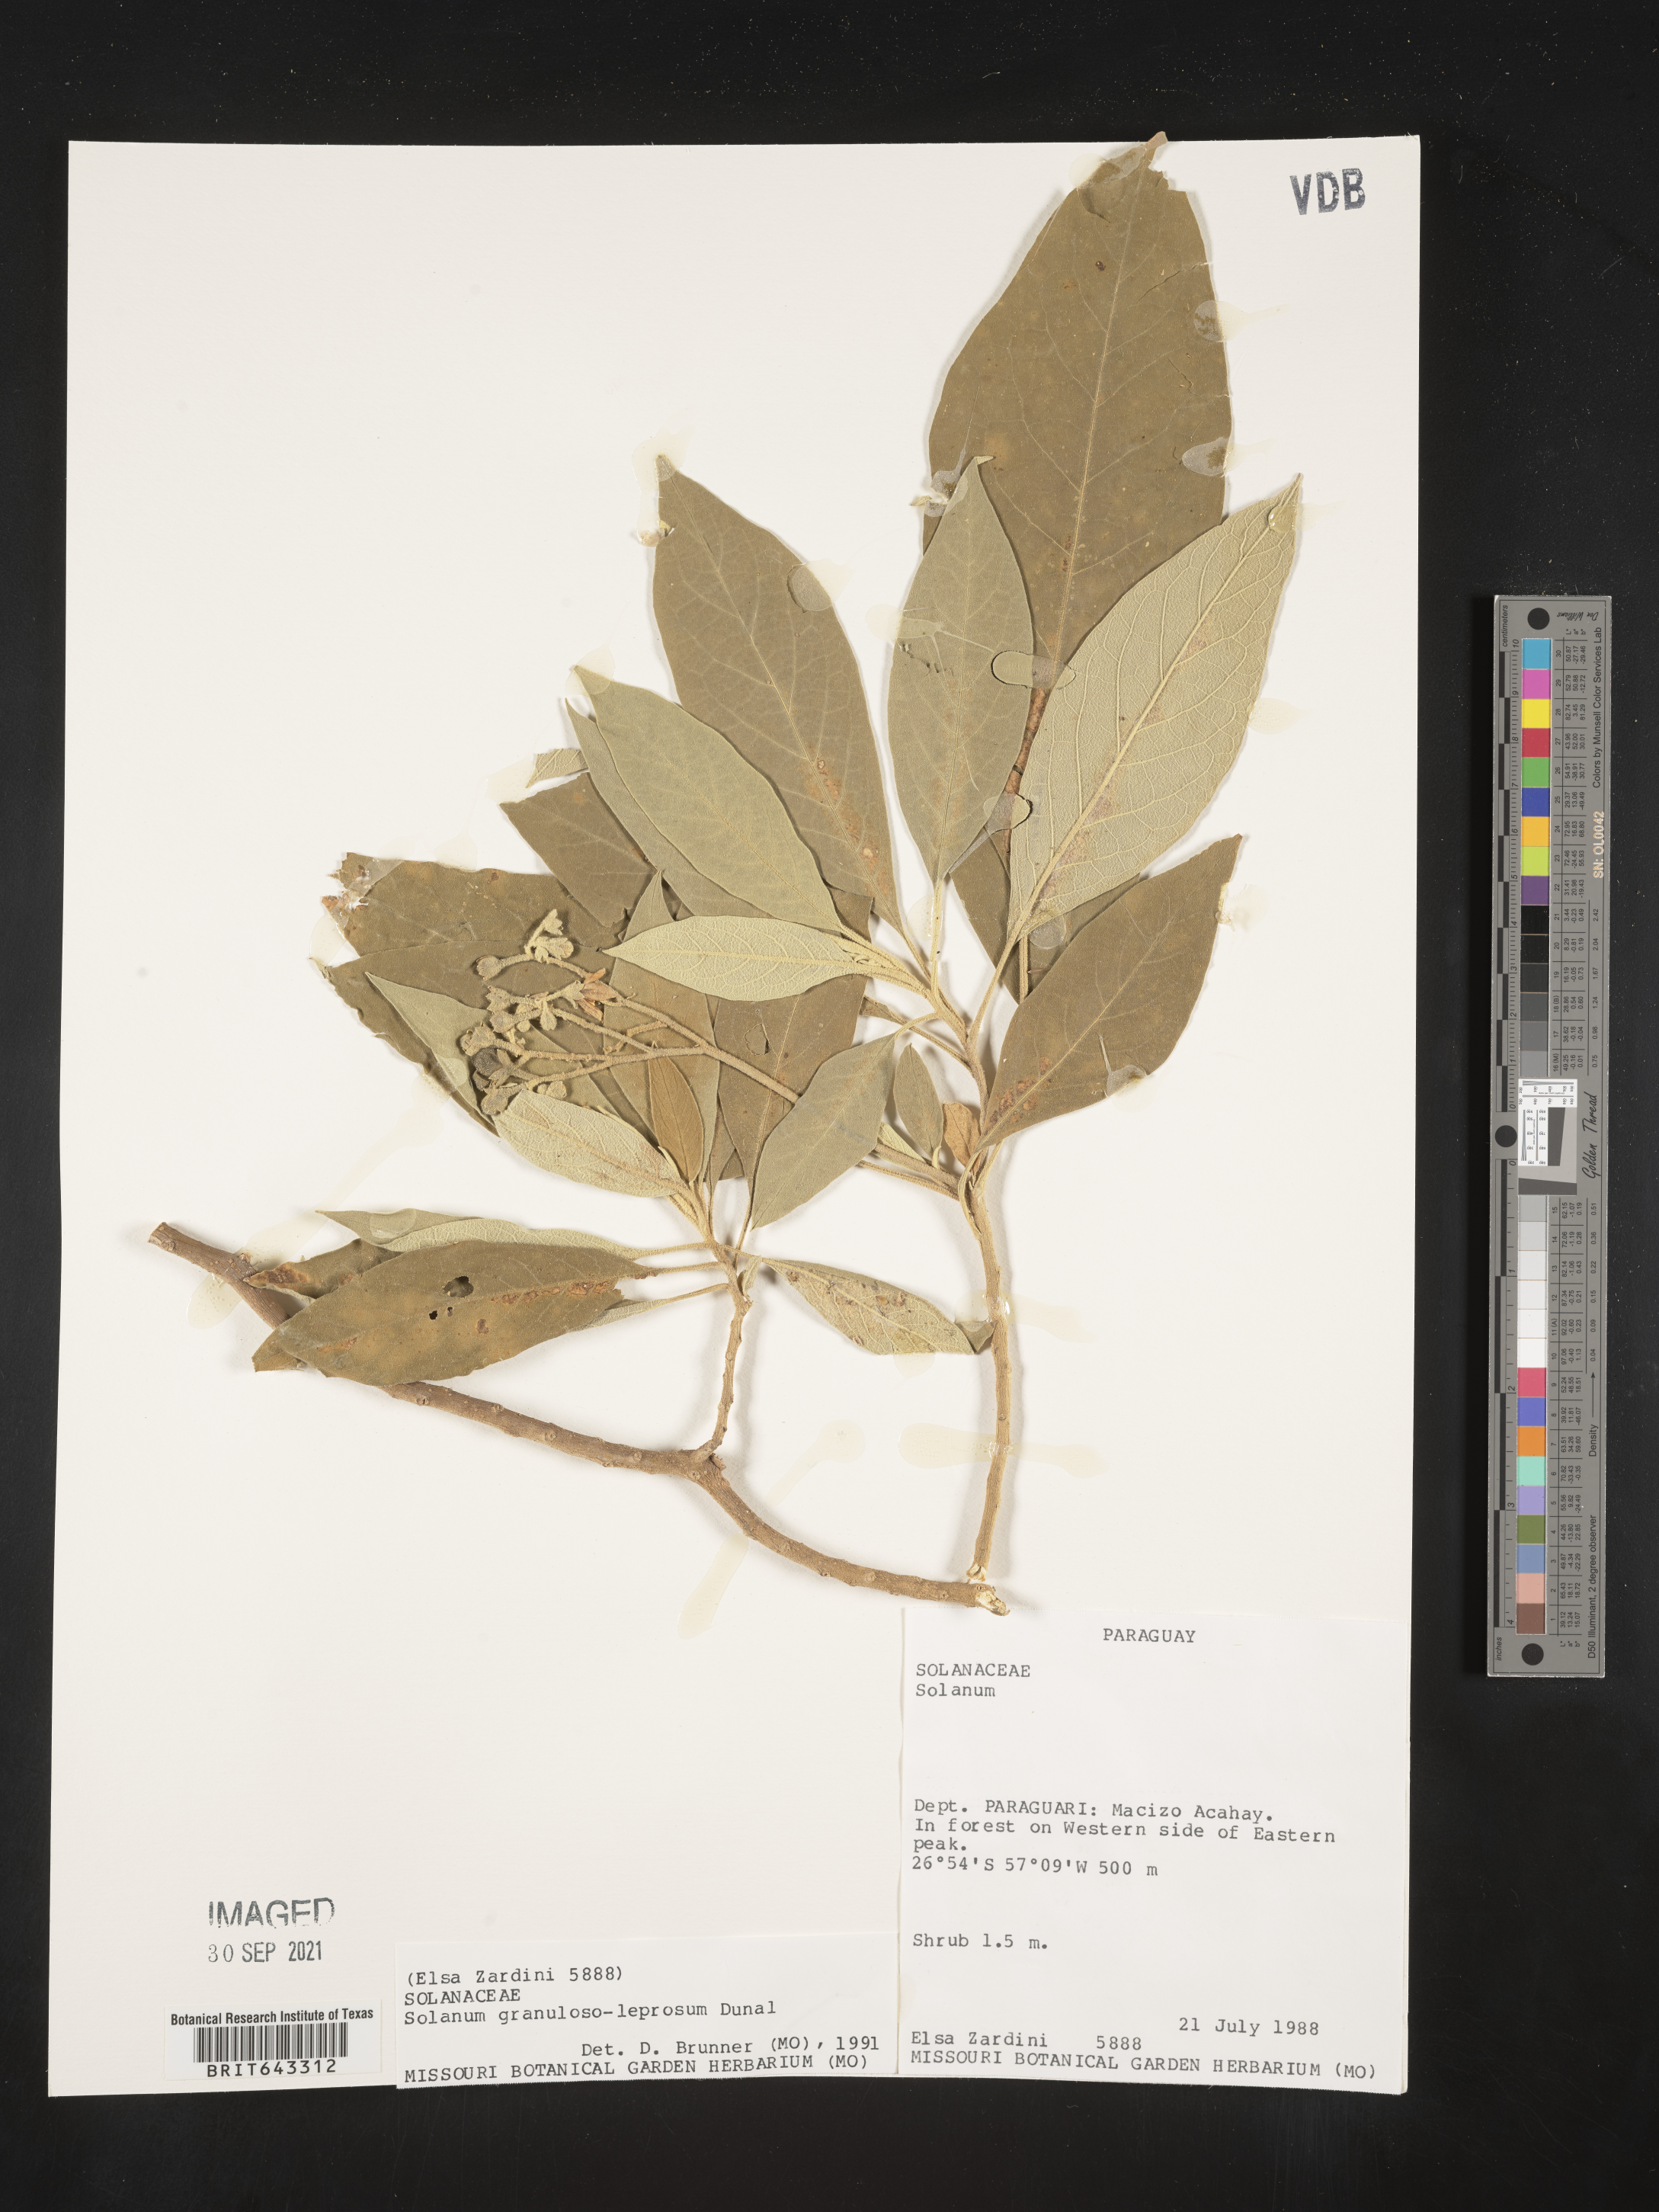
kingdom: Plantae
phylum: Tracheophyta
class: Magnoliopsida
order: Solanales
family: Solanaceae
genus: Solanum
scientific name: Solanum
